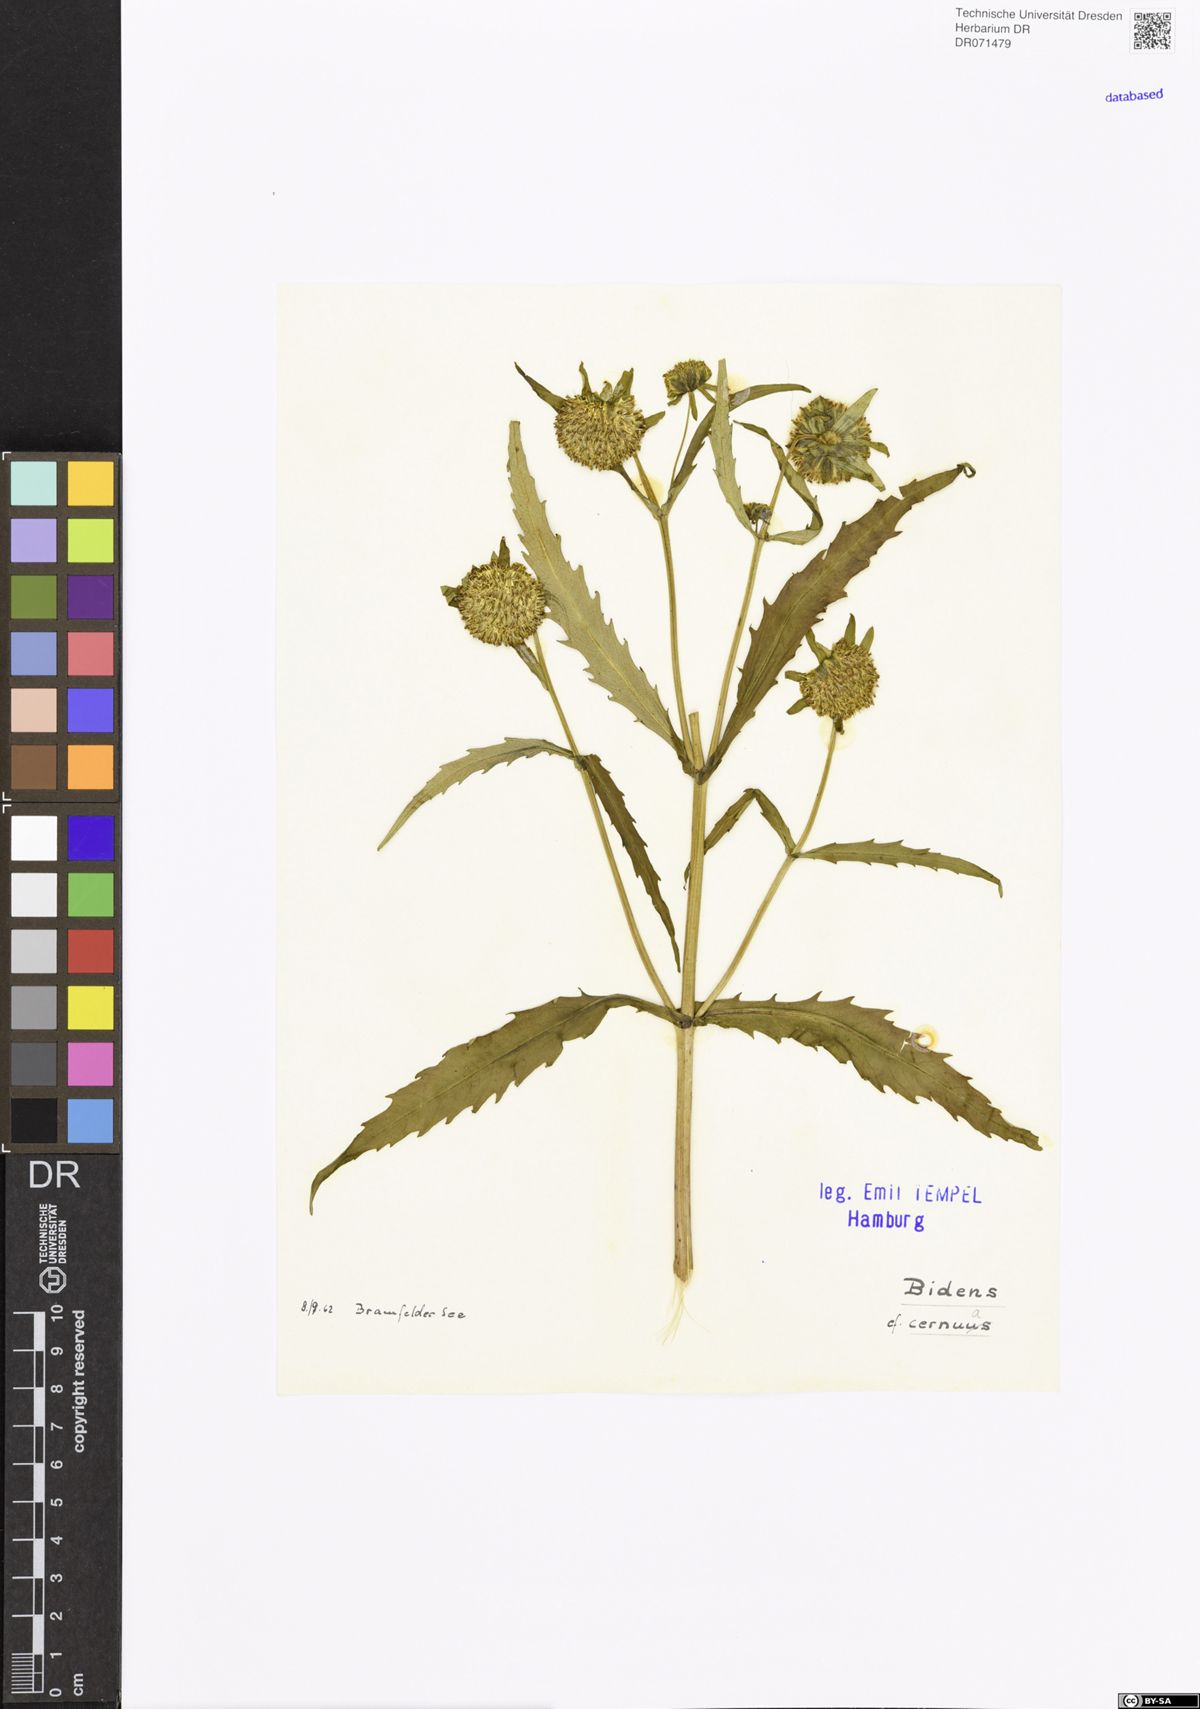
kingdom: Plantae
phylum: Tracheophyta
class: Magnoliopsida
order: Asterales
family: Asteraceae
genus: Bidens
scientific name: Bidens cernua
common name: Nodding bur-marigold
